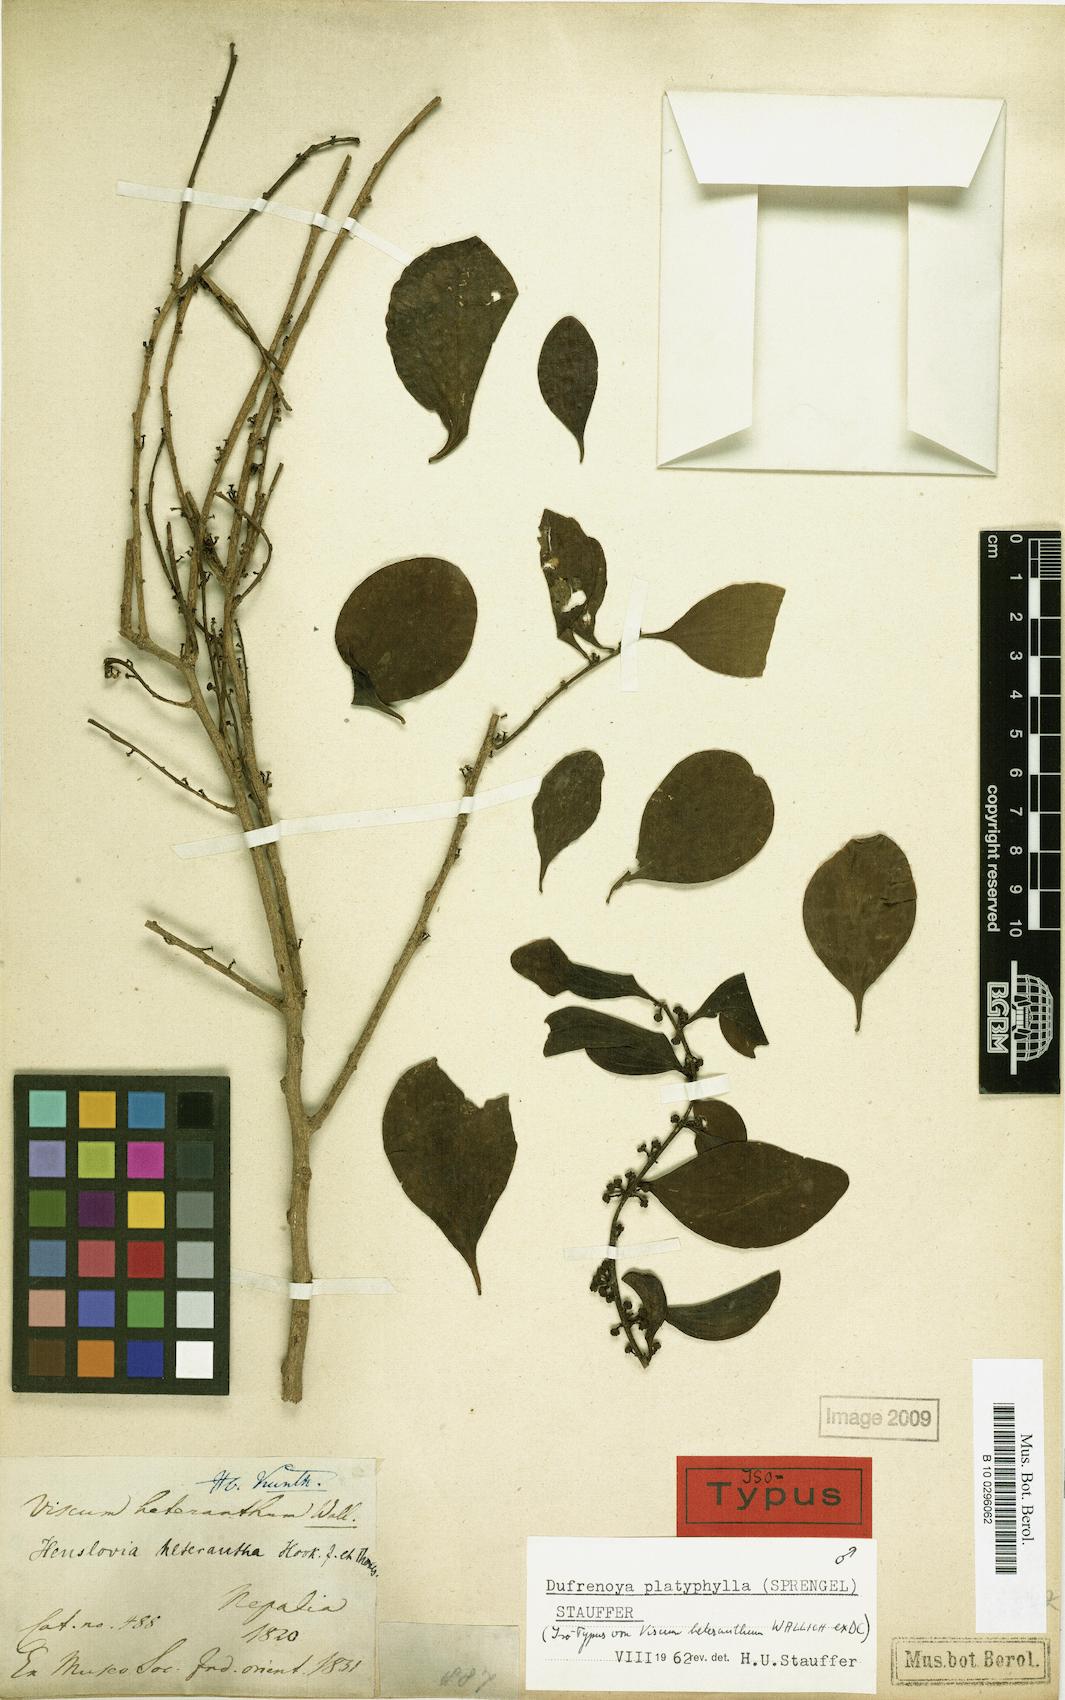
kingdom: Plantae
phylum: Tracheophyta
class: Magnoliopsida
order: Santalales
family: Amphorogynaceae
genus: Dendrotrophe
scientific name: Dendrotrophe platyphylla
